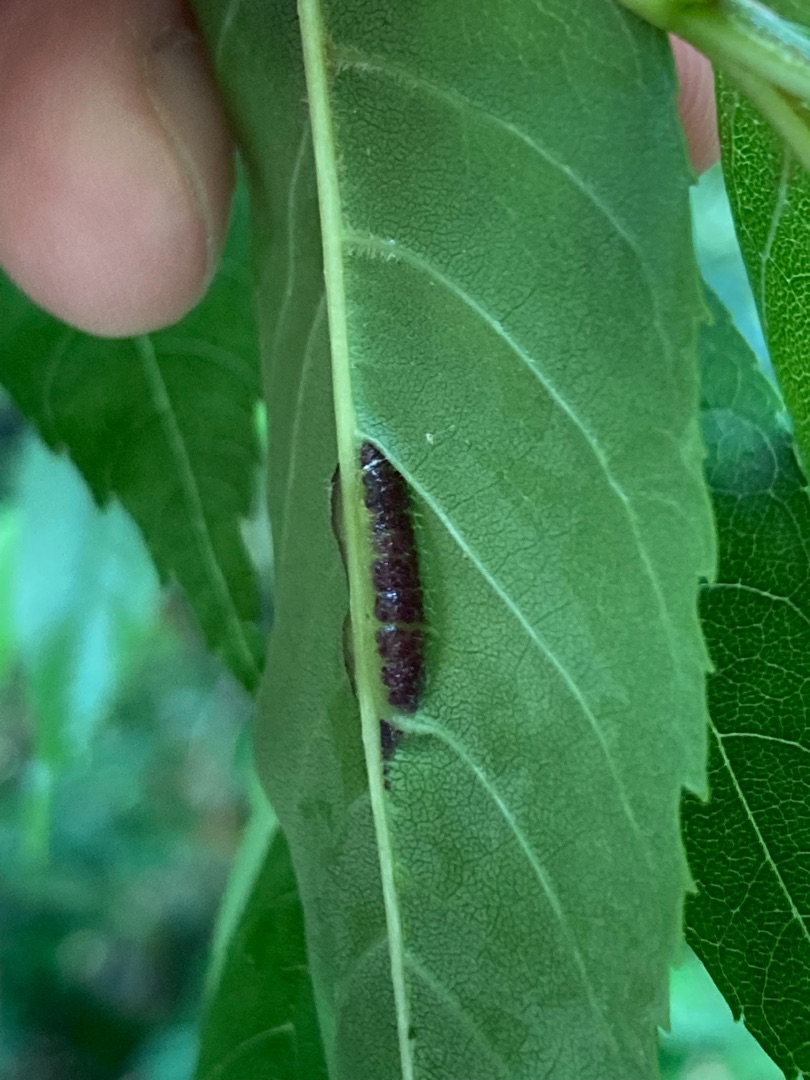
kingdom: Animalia
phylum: Arthropoda
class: Insecta
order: Diptera
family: Cecidomyiidae
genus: Dasineura
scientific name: Dasineura fraxini
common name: Orange askebladgalmyg
